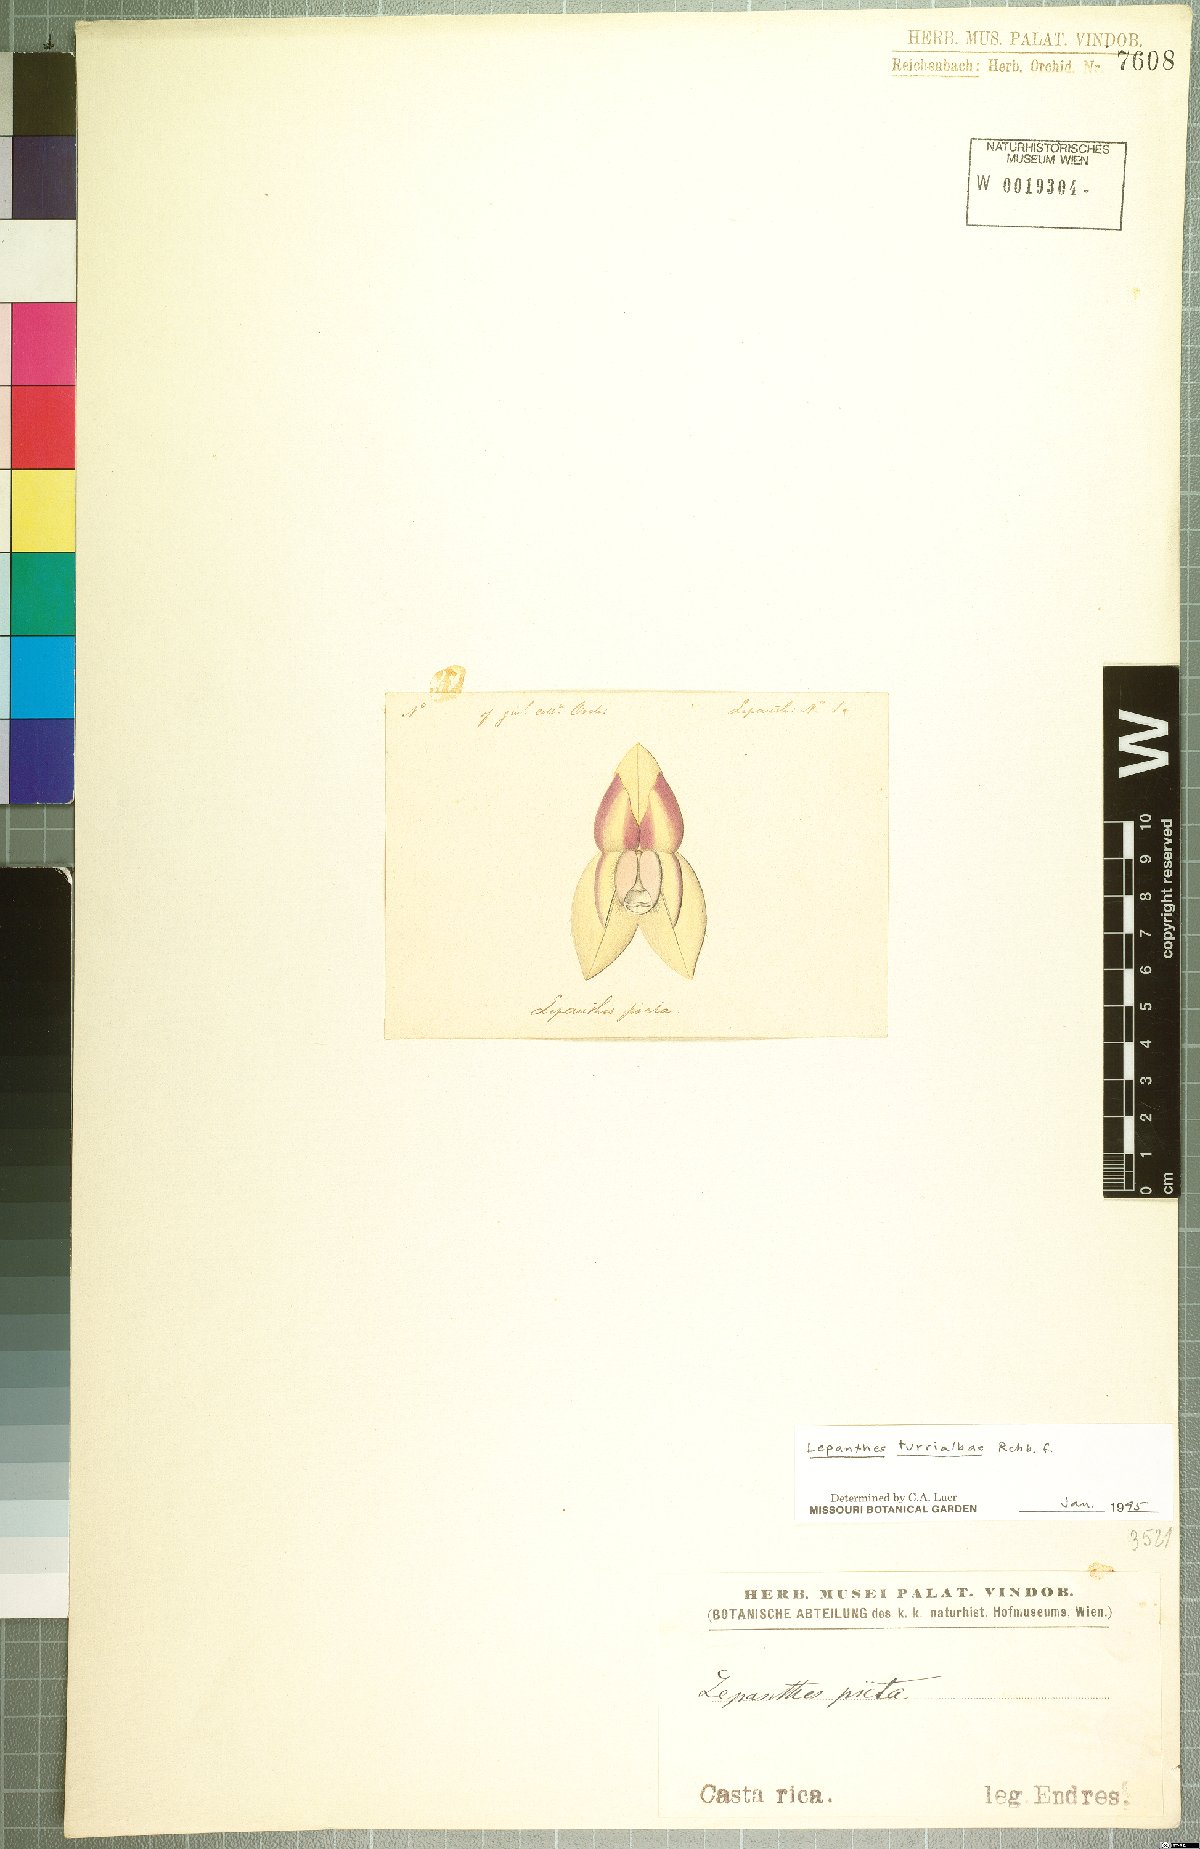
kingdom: Plantae
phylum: Tracheophyta
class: Liliopsida
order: Asparagales
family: Orchidaceae
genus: Lepanthes
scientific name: Lepanthes turialvae
